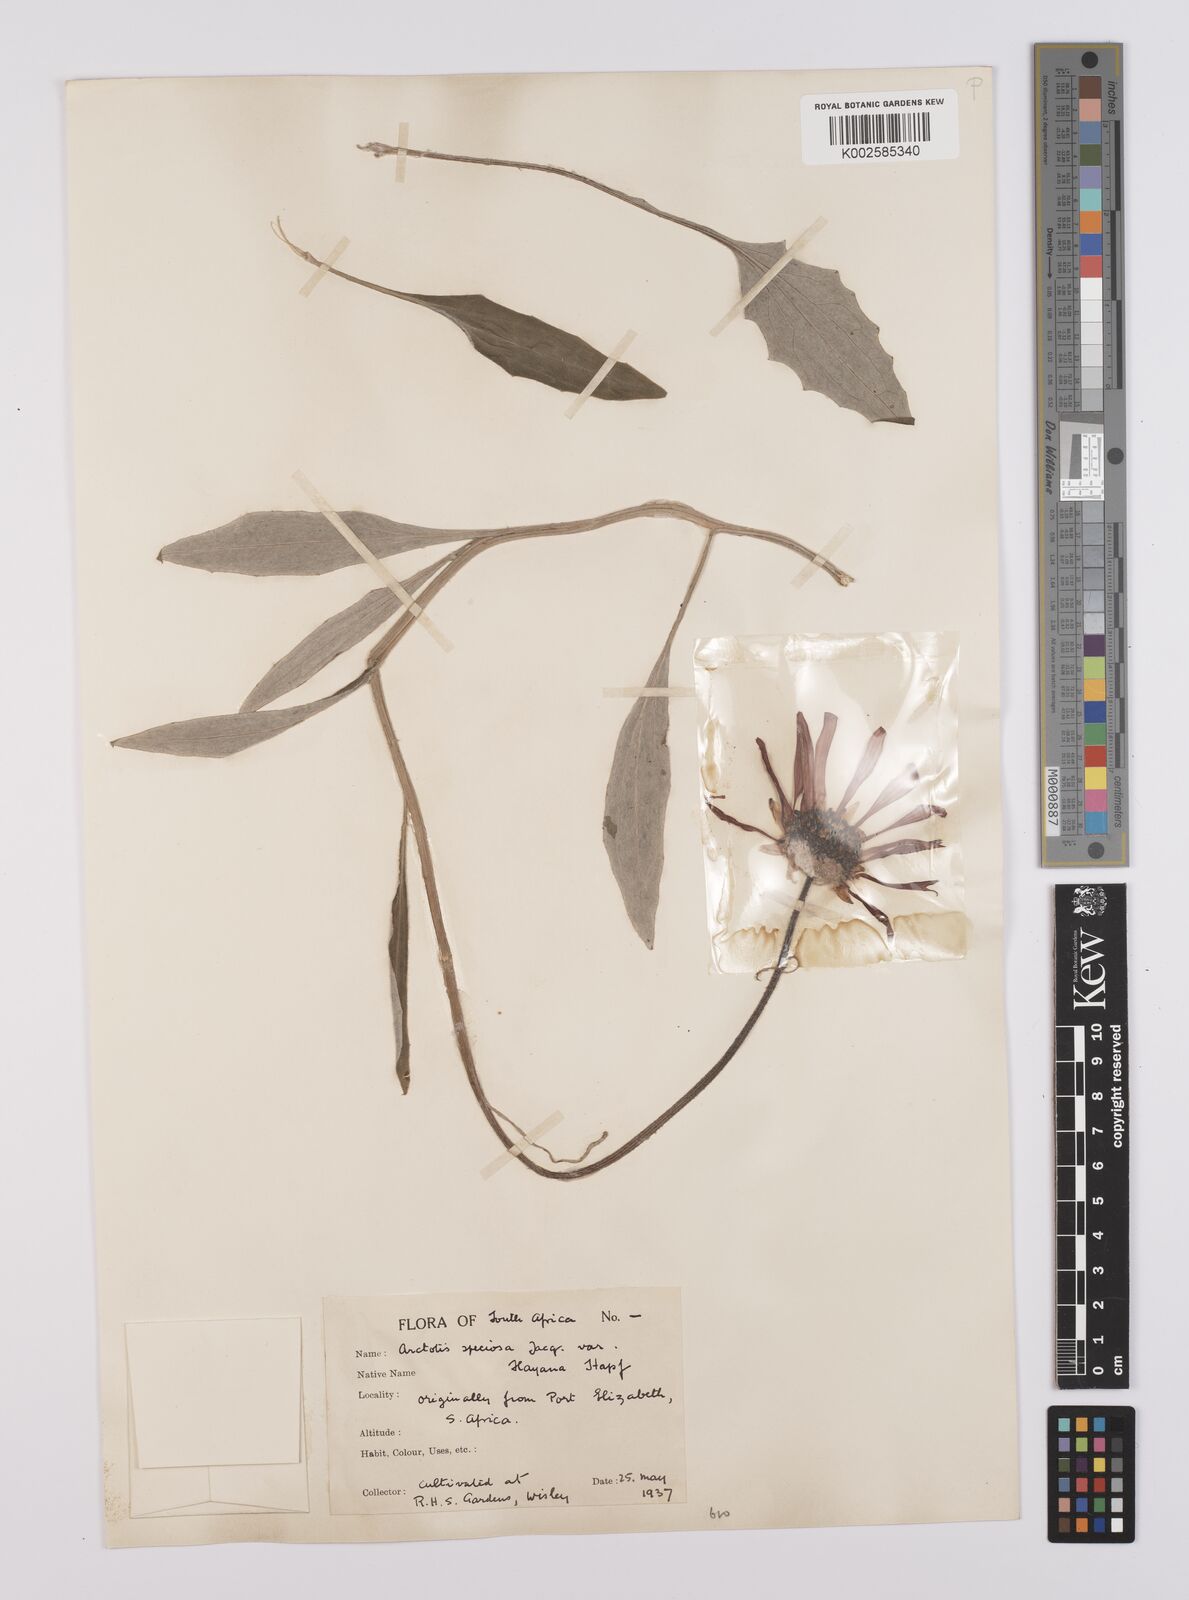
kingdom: Plantae
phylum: Tracheophyta
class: Magnoliopsida
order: Asterales
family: Asteraceae
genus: Arctotis
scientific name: Arctotis rosea
